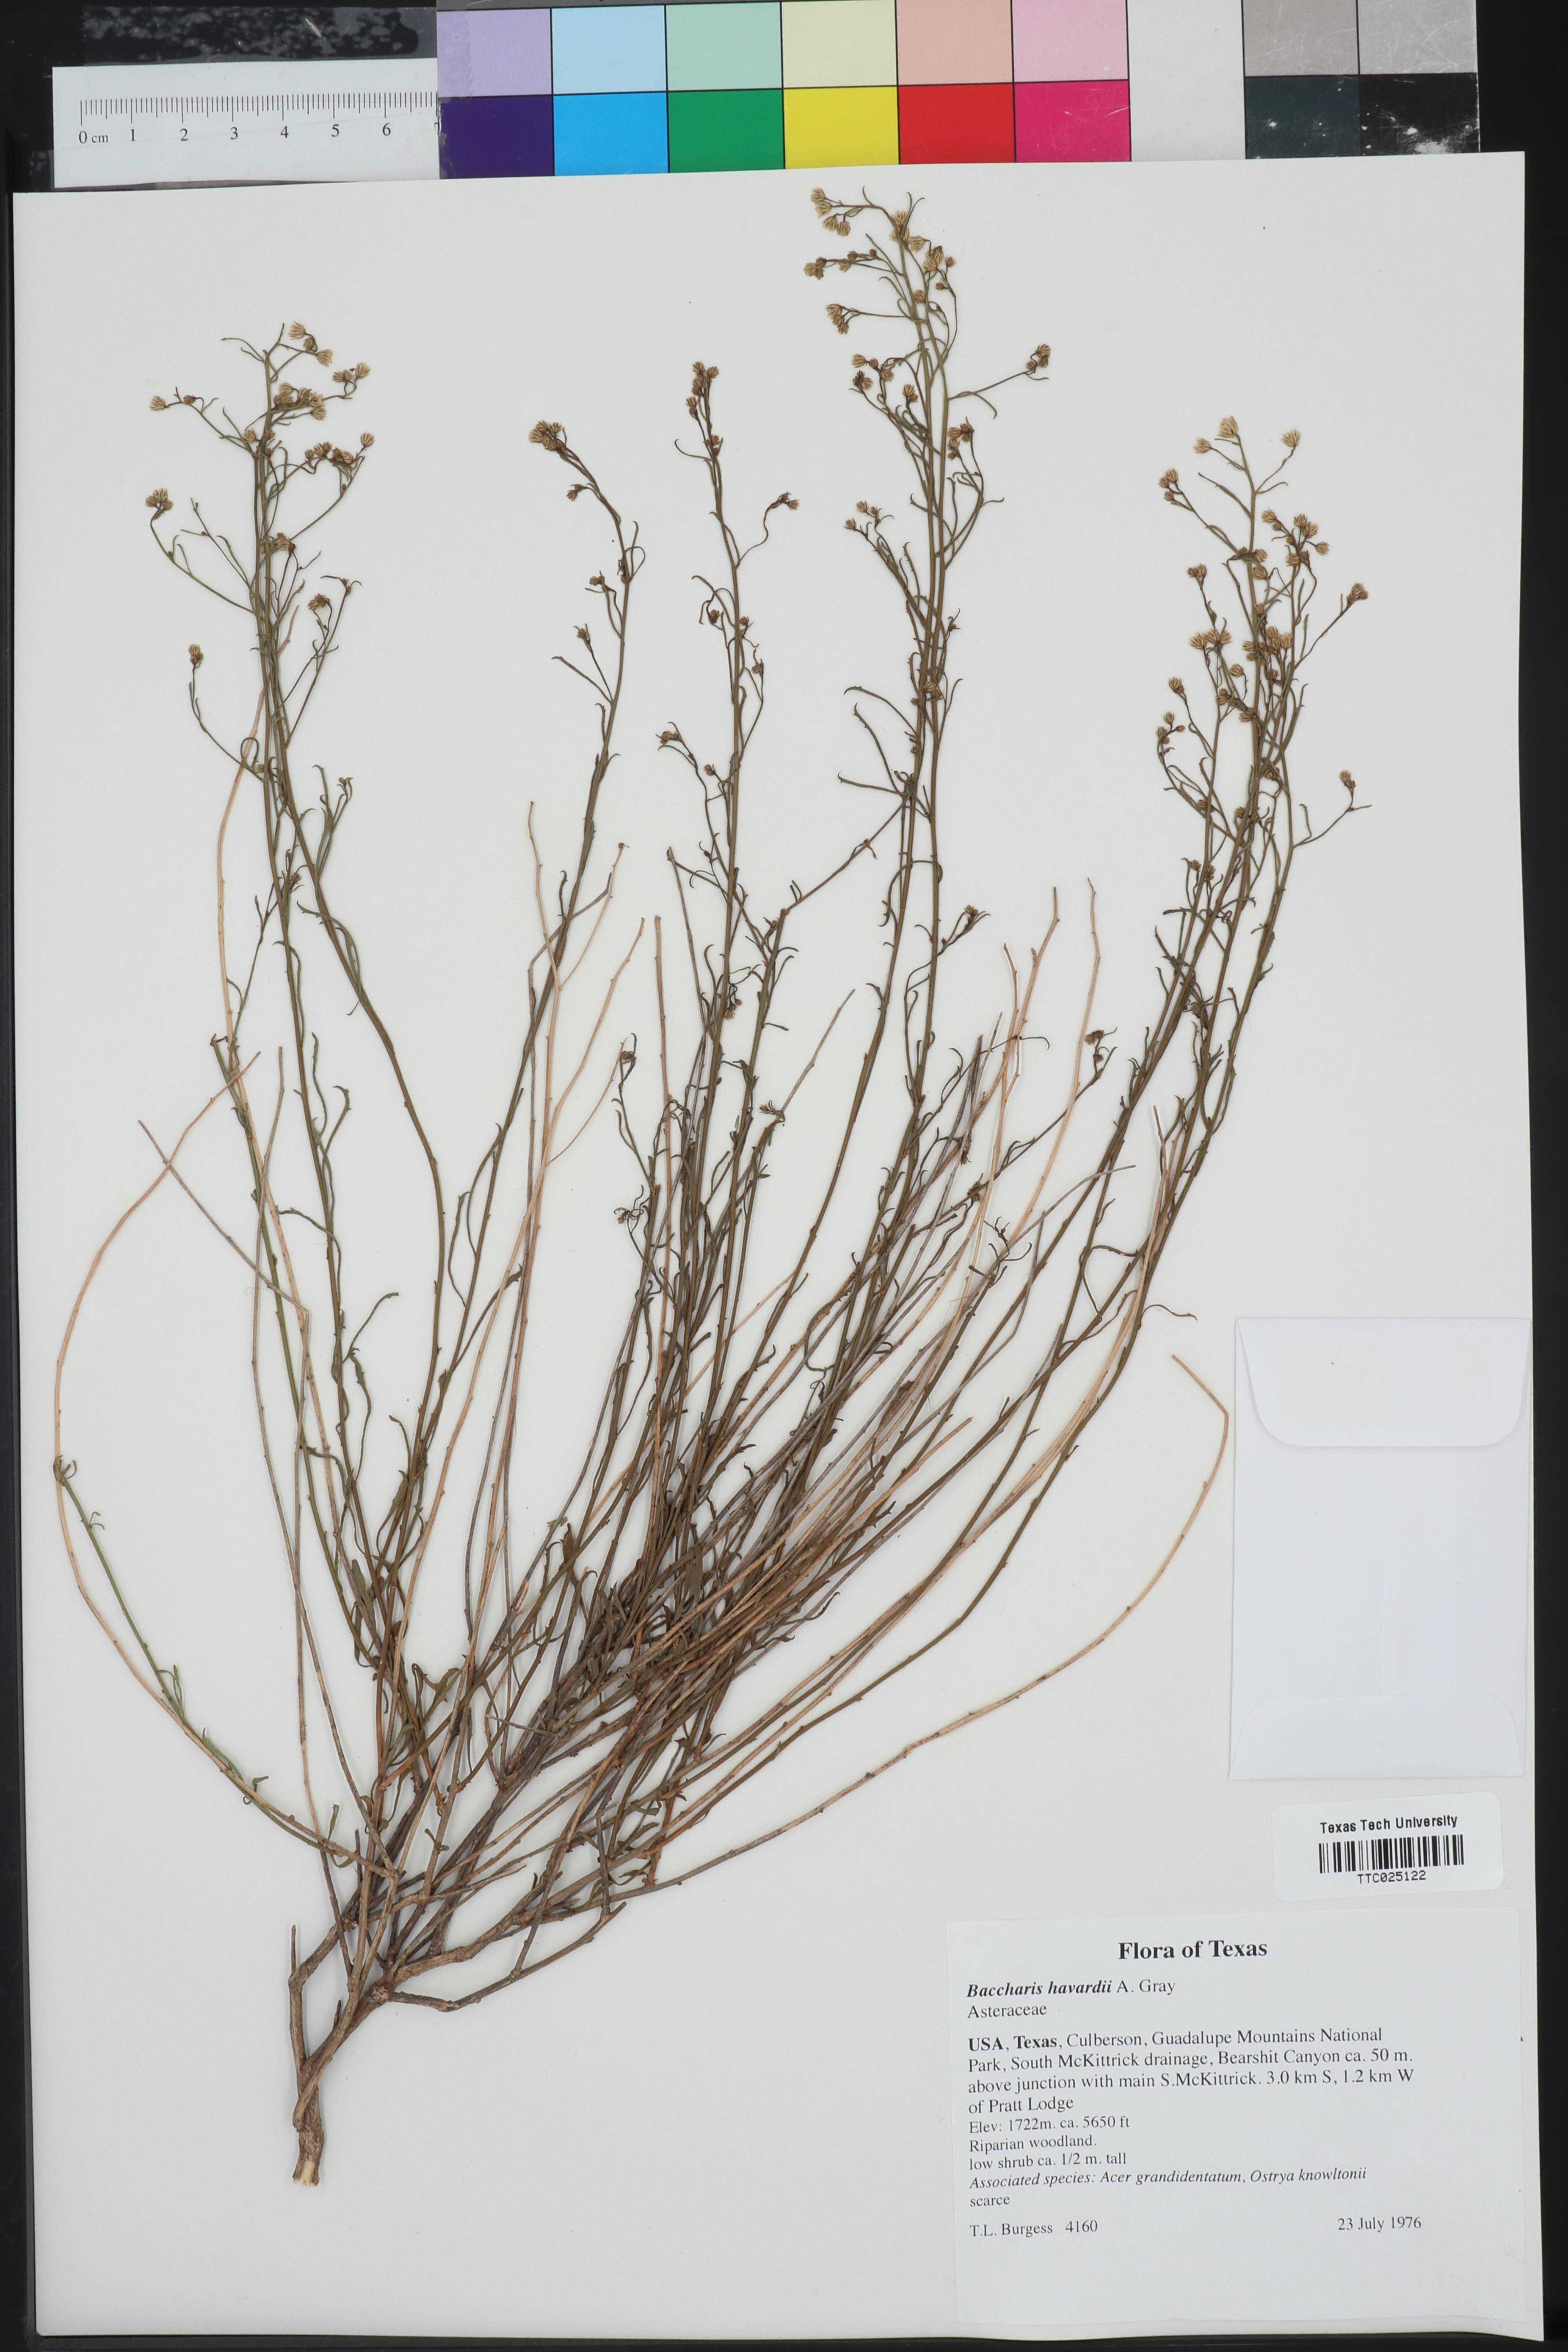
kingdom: Plantae
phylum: Tracheophyta
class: Magnoliopsida
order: Asterales
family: Asteraceae
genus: Baccharis
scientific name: Baccharis havardii
